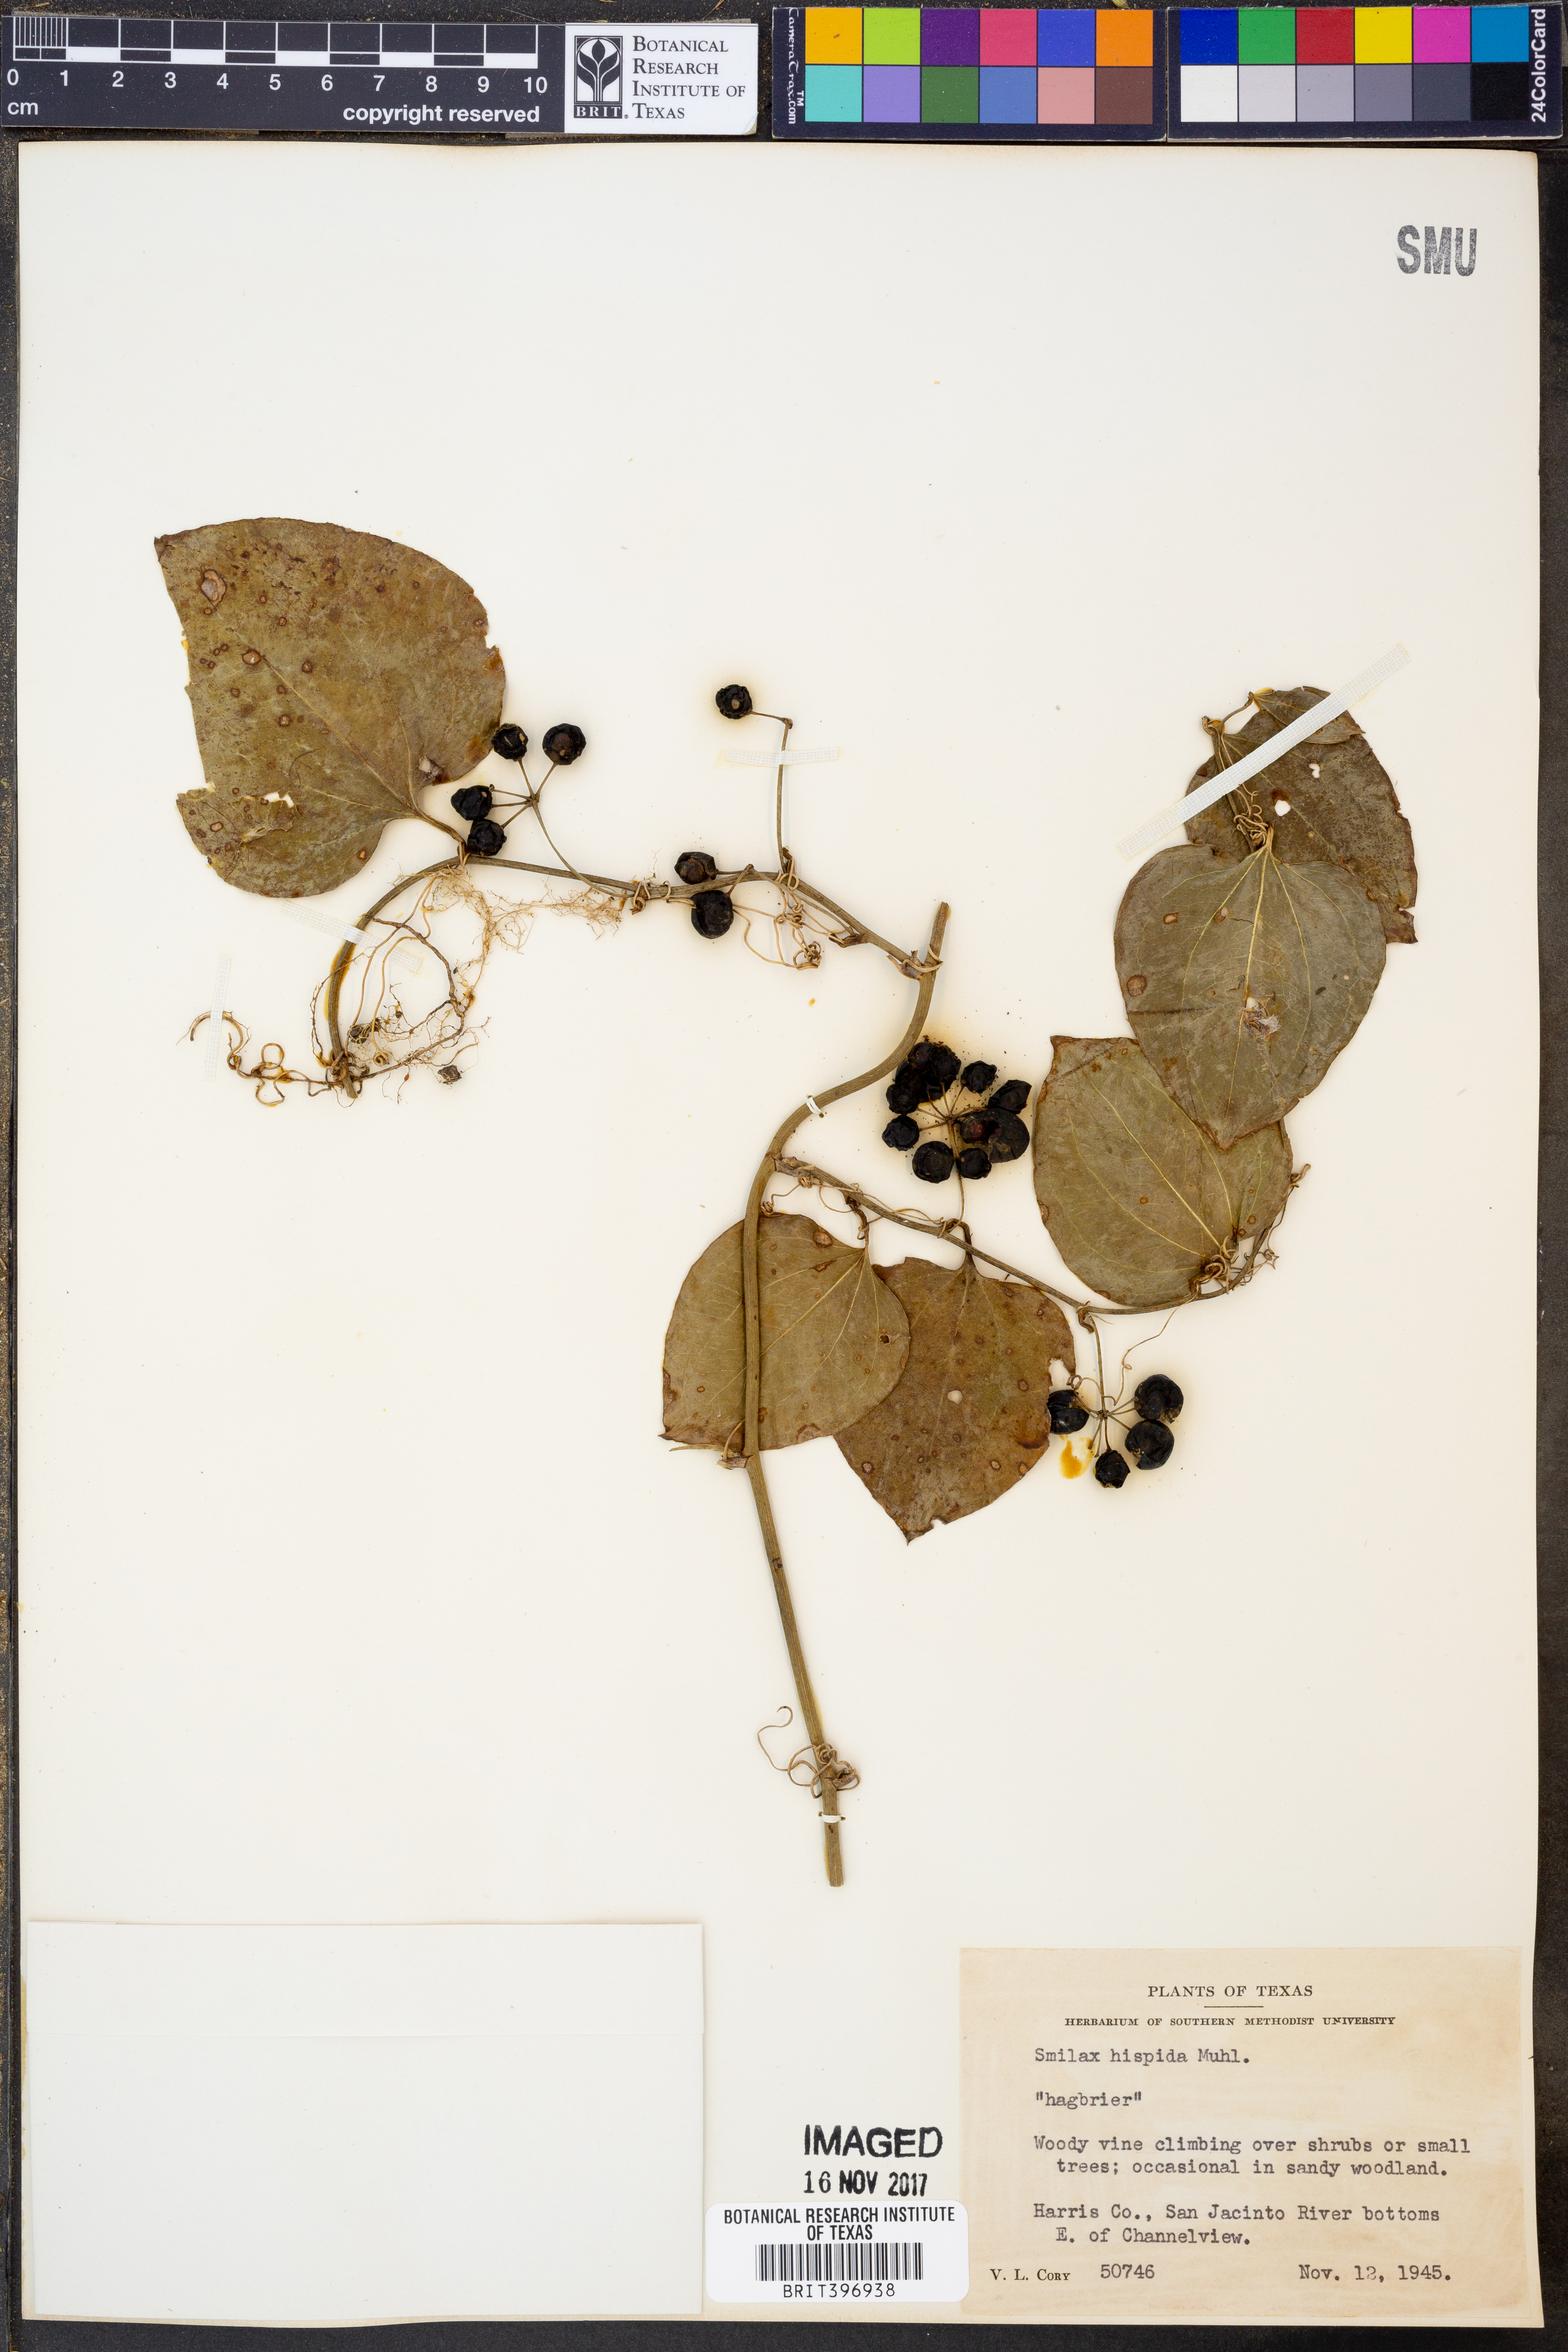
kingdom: Plantae
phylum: Tracheophyta
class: Liliopsida
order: Liliales
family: Smilacaceae
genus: Smilax
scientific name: Smilax tamnoides
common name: Hellfetter
